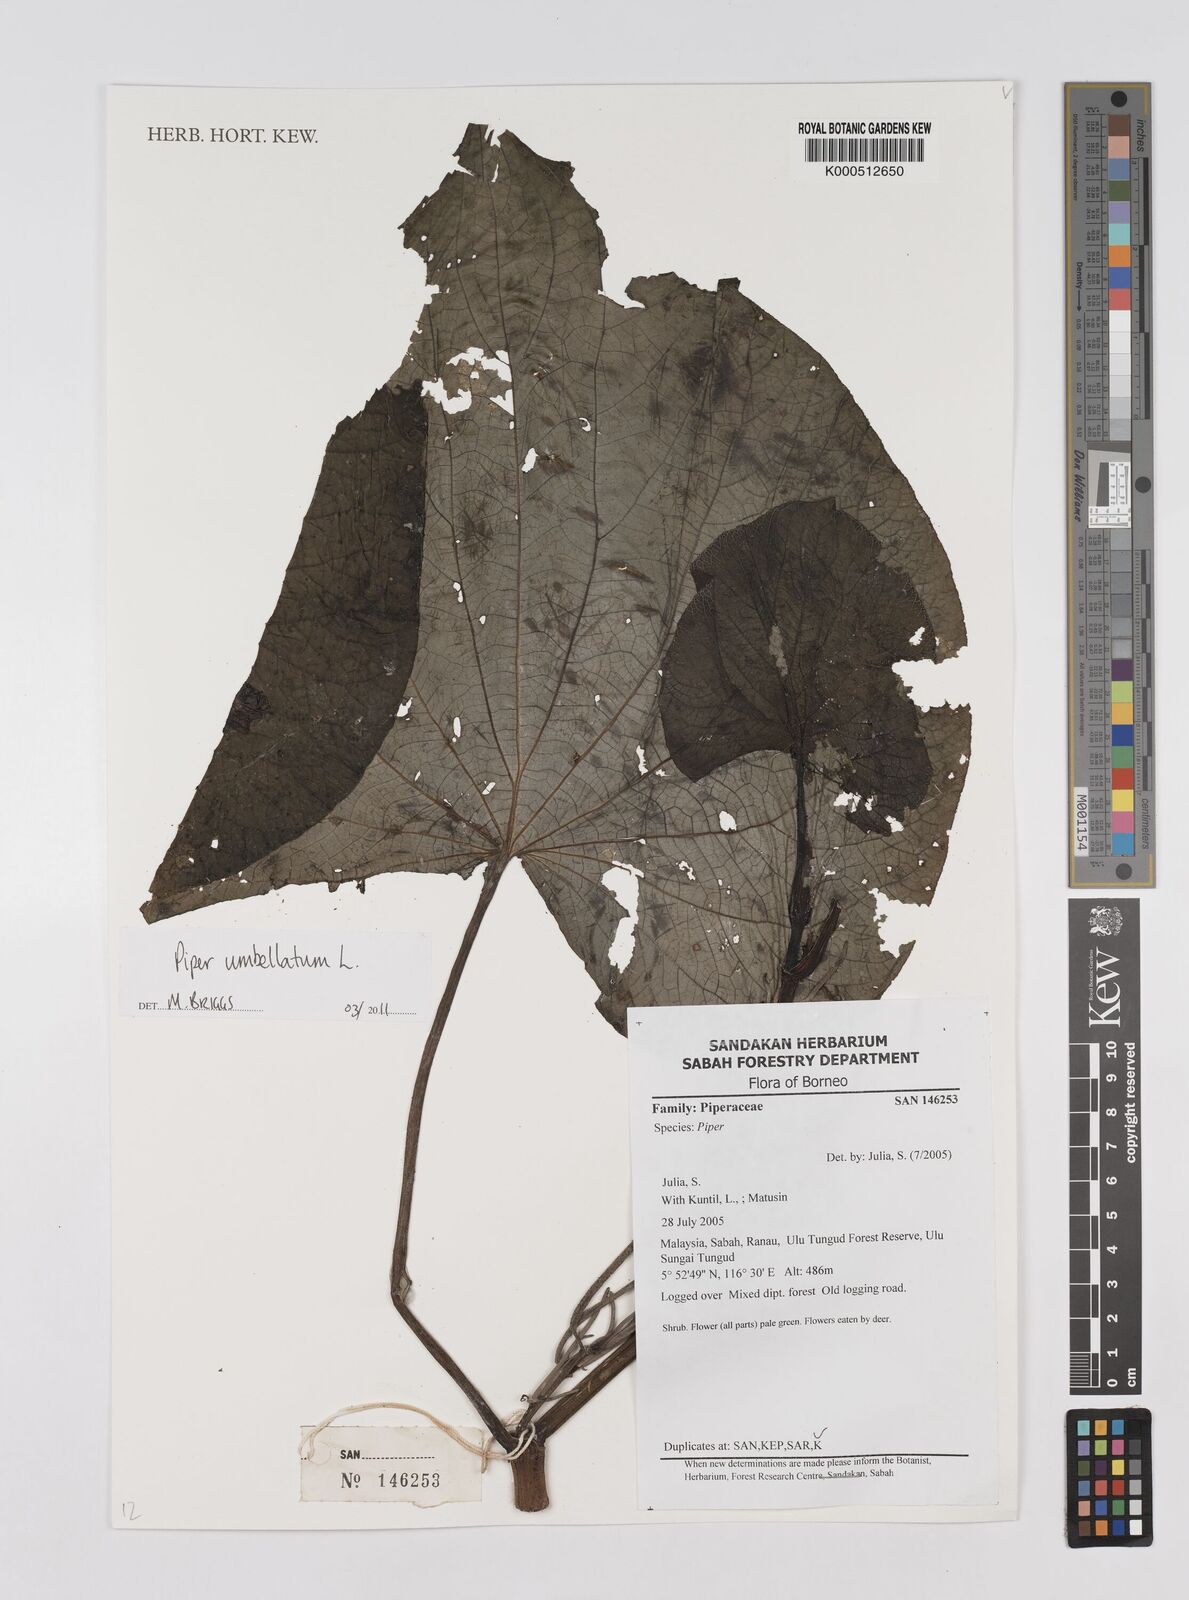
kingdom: Plantae
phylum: Tracheophyta
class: Magnoliopsida
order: Piperales
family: Piperaceae
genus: Piper
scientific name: Piper umbellatum
